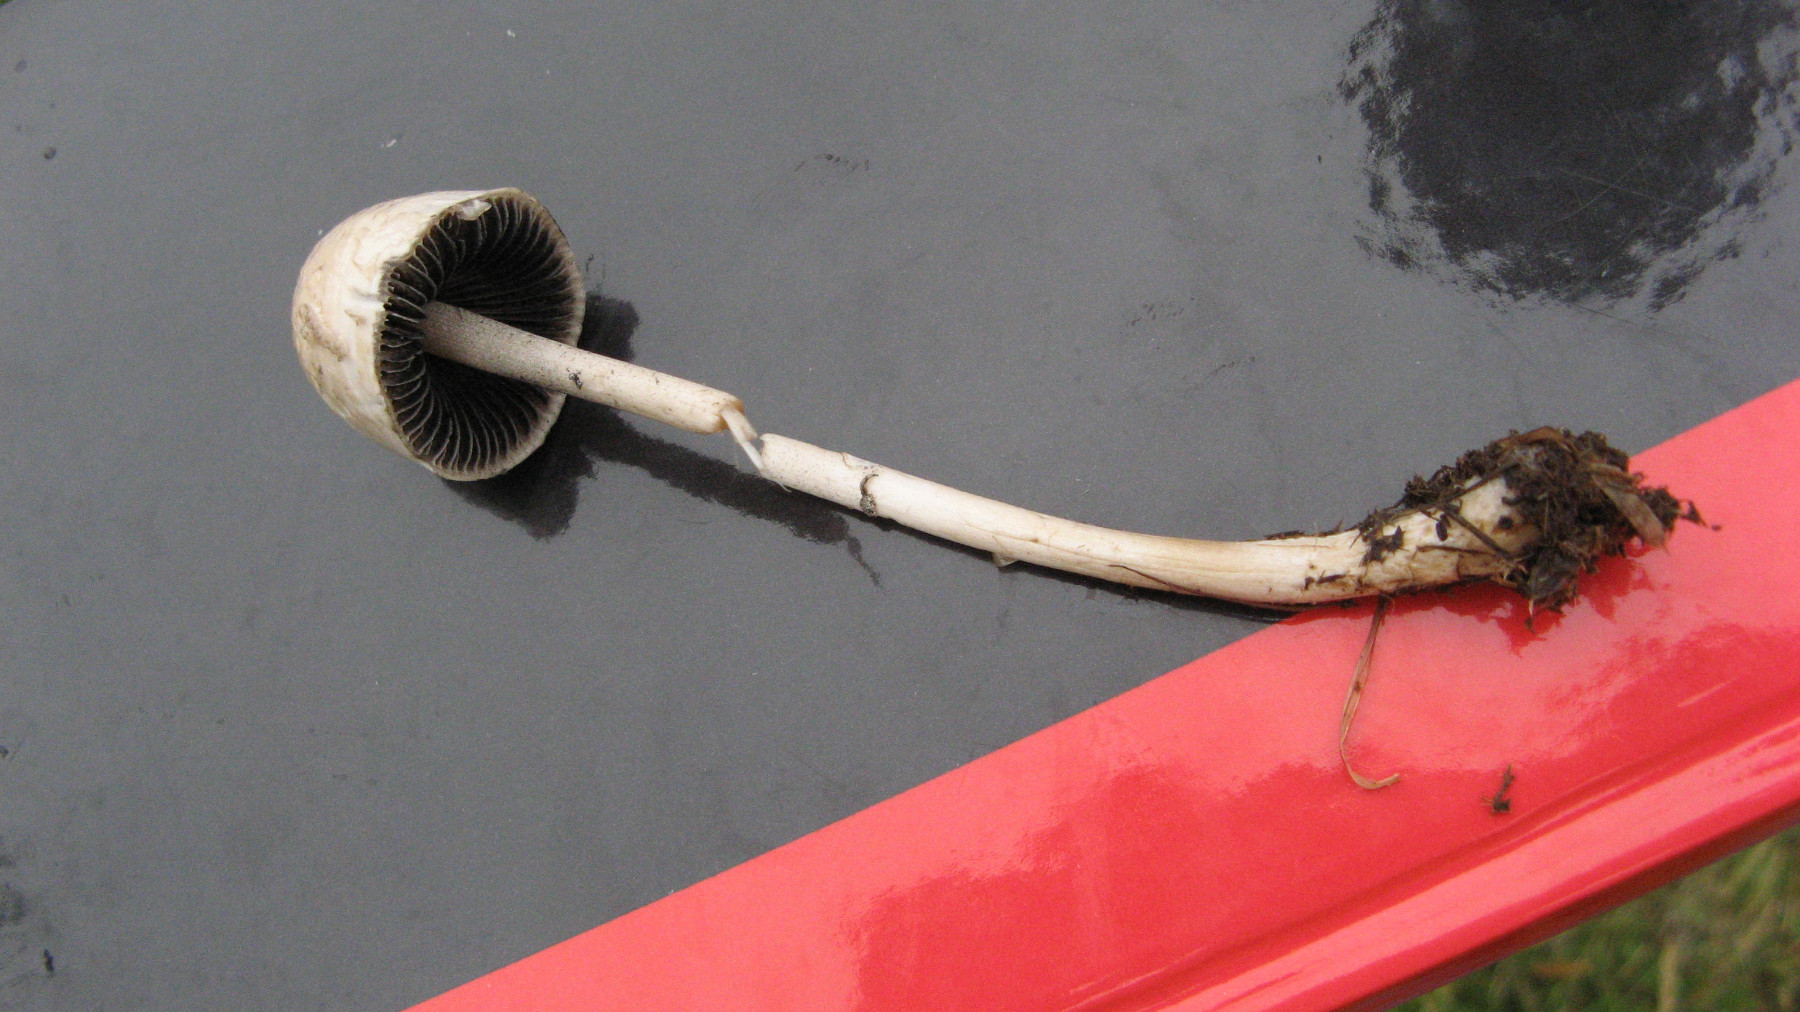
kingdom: Fungi
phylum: Basidiomycota
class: Agaricomycetes
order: Agaricales
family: Bolbitiaceae
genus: Panaeolus
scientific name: Panaeolus semiovatus
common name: ring-glanshat
